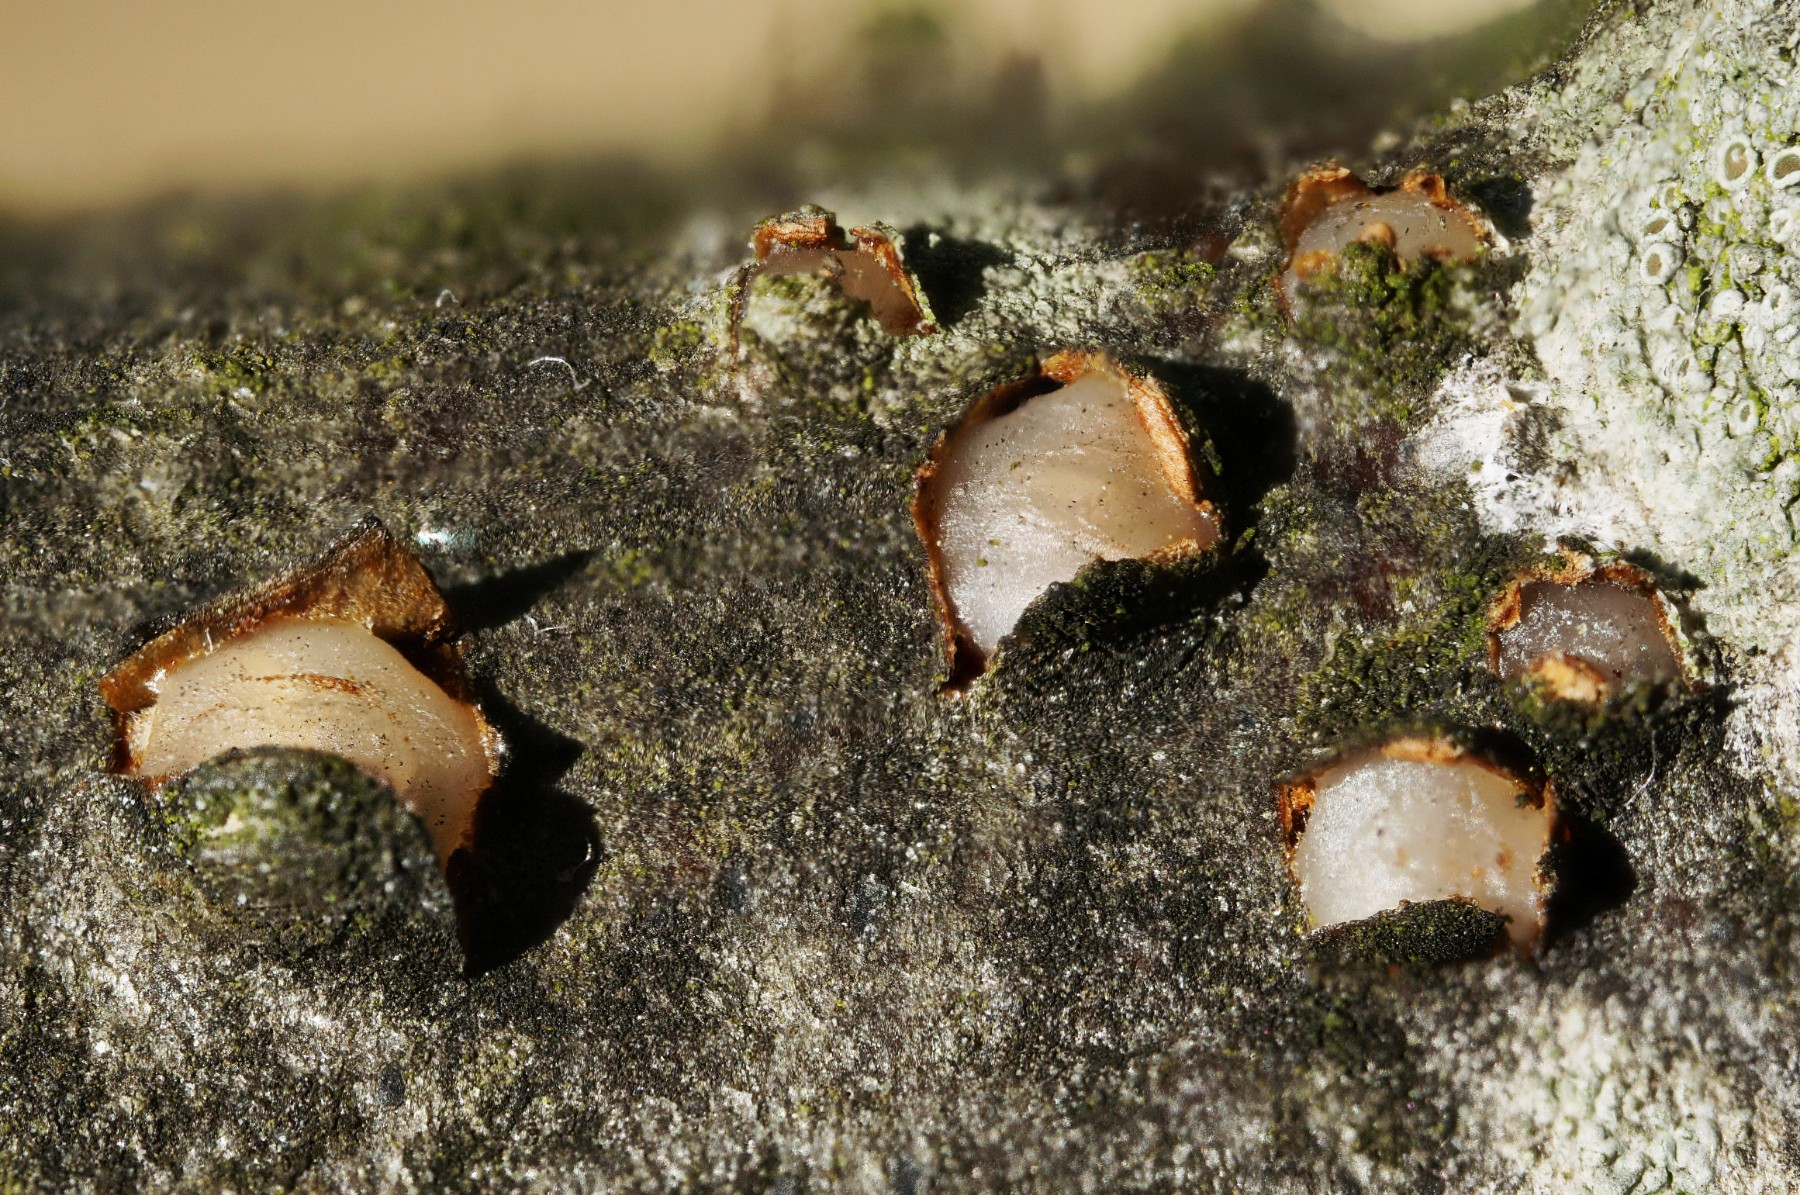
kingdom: Fungi
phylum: Basidiomycota
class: Pucciniomycetes
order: Platygloeales
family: Platygloeaceae
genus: Platygloea
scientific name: Platygloea disciformis
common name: linde-slimklat
